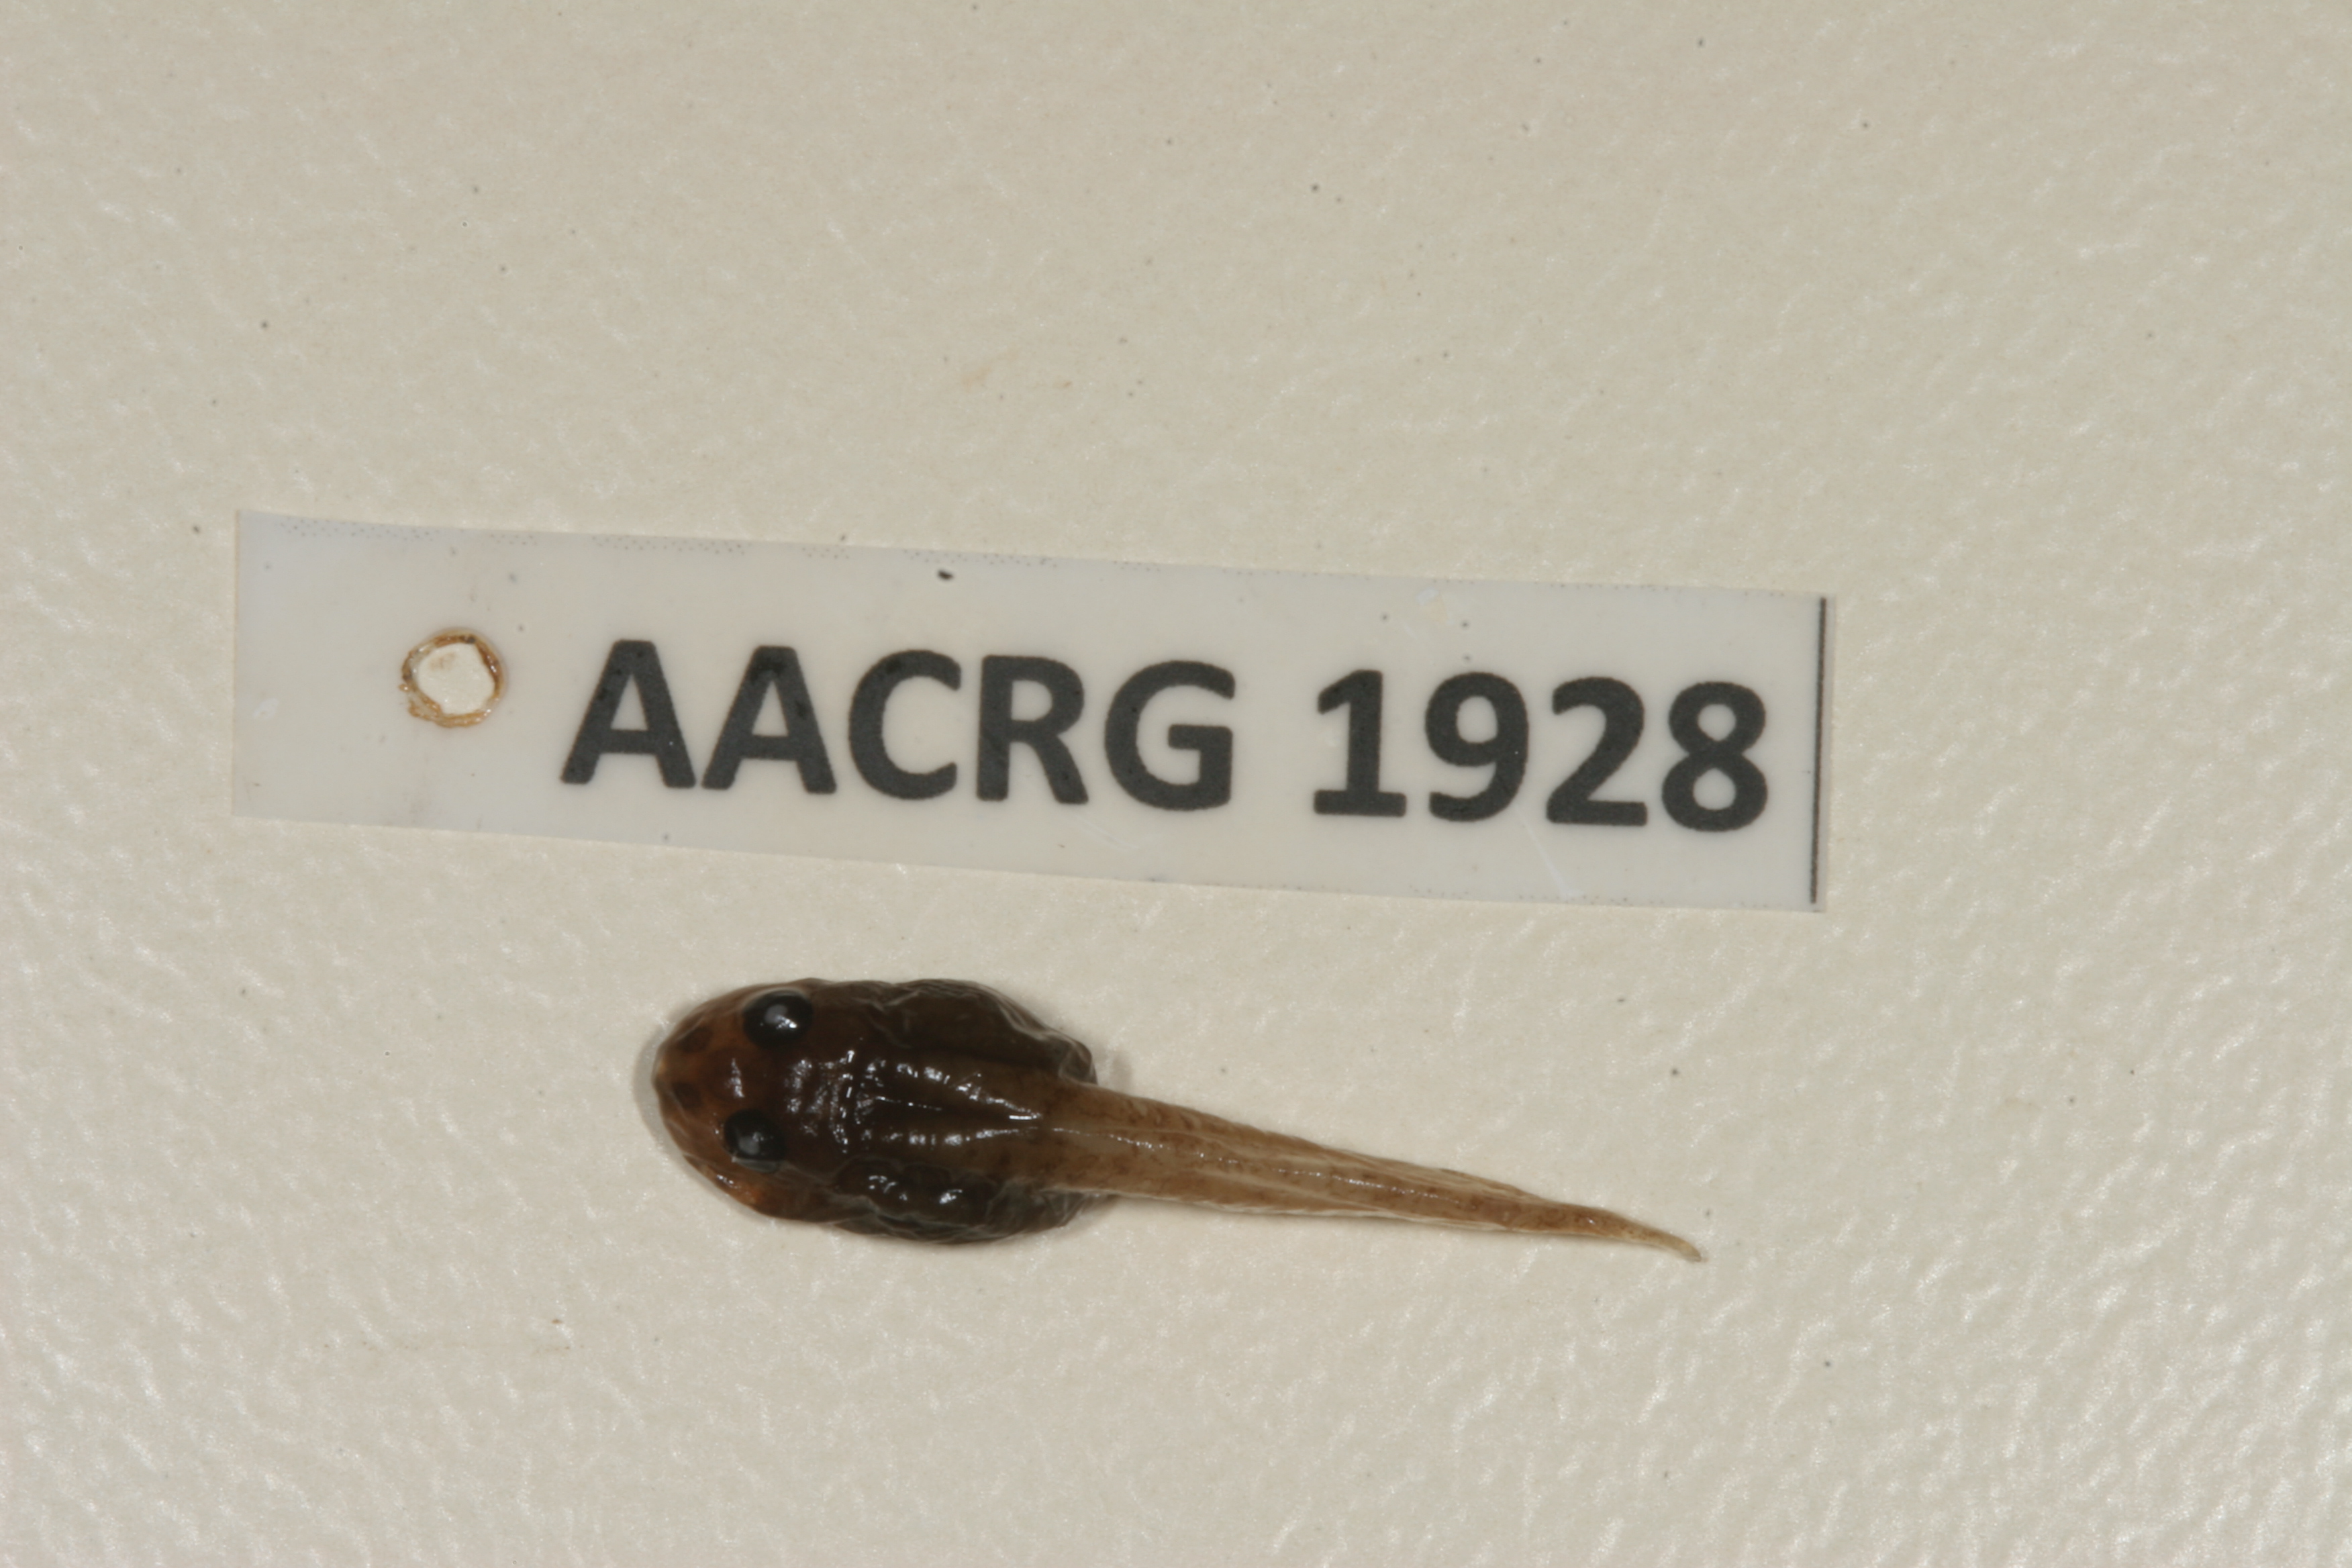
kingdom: Animalia
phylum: Chordata
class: Amphibia
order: Anura
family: Ptychadenidae
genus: Ptychadena
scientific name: Ptychadena taenioscelis
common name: Lukula grassland frog
